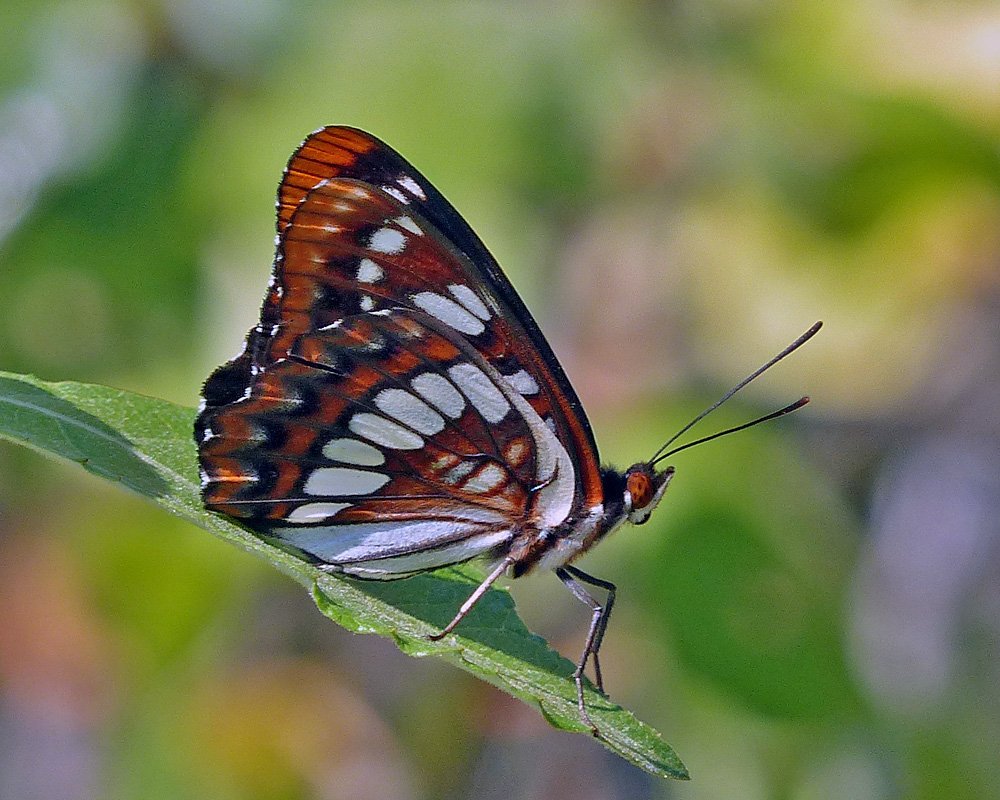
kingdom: Animalia
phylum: Arthropoda
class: Insecta
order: Lepidoptera
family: Nymphalidae
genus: Limenitis
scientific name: Limenitis lorquini
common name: Lorquin's Admiral
